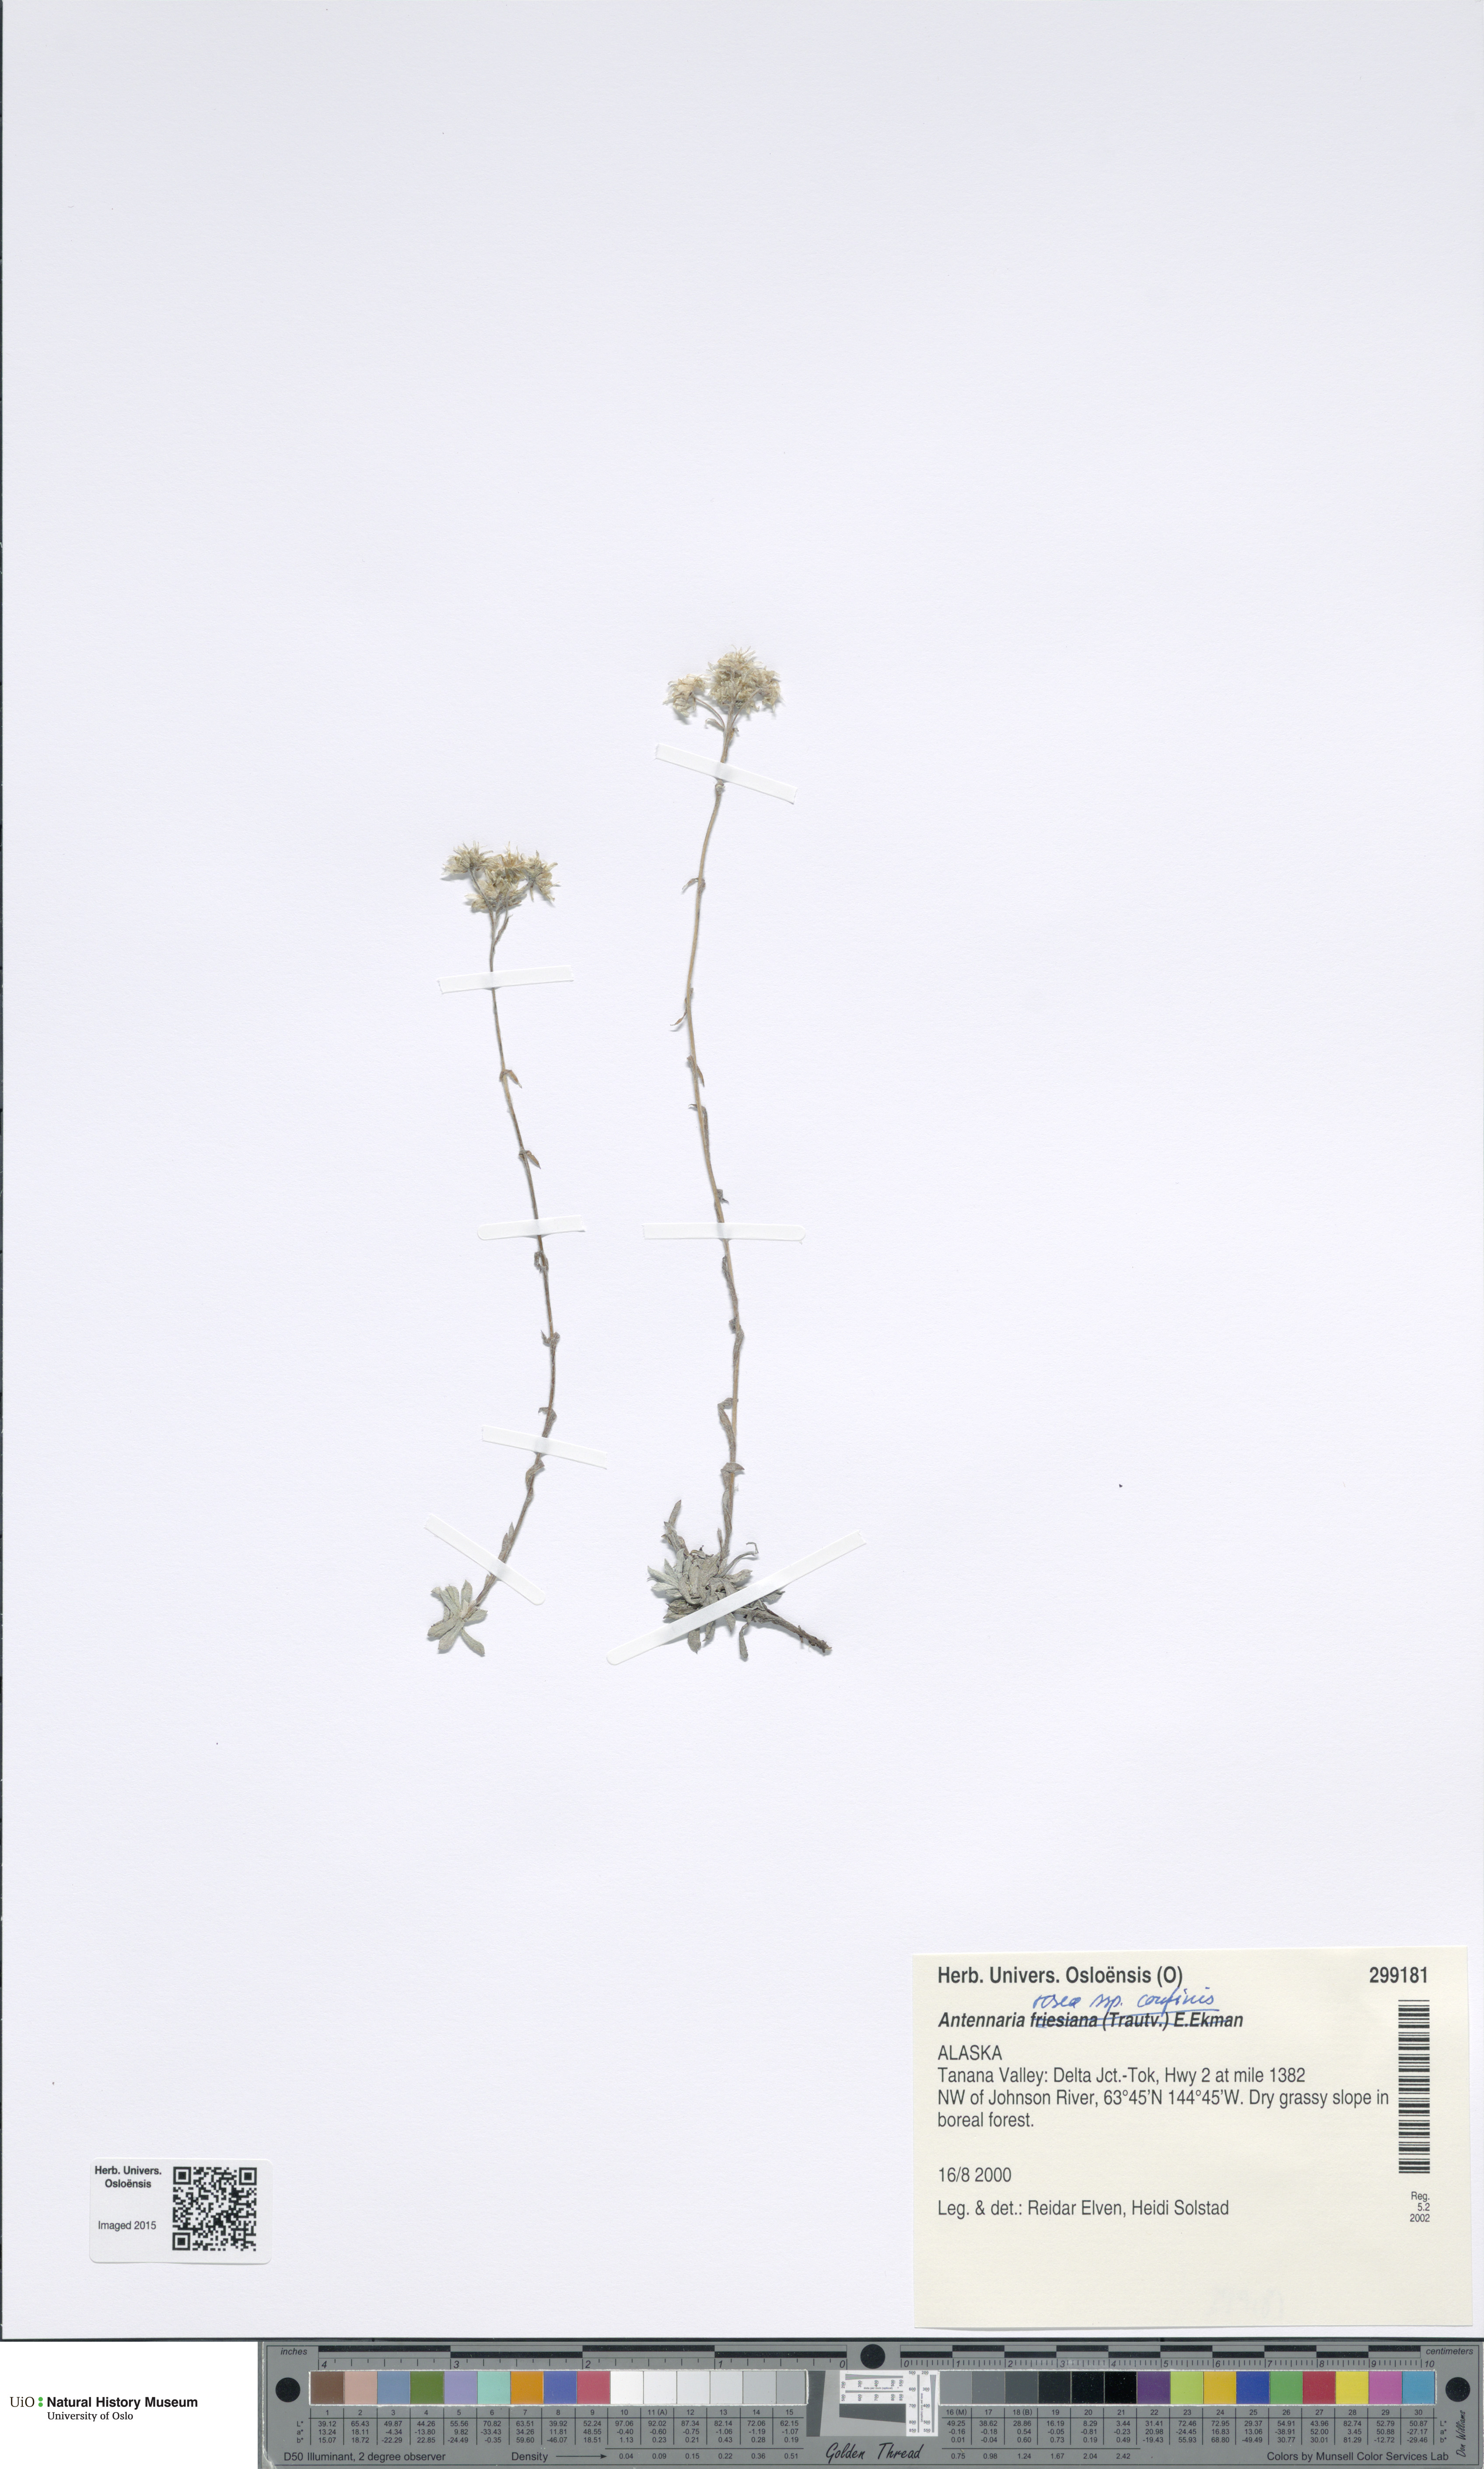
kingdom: Plantae
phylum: Tracheophyta
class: Magnoliopsida
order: Asterales
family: Asteraceae
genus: Antennaria
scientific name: Antennaria friesiana
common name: Fries' pussytoes
